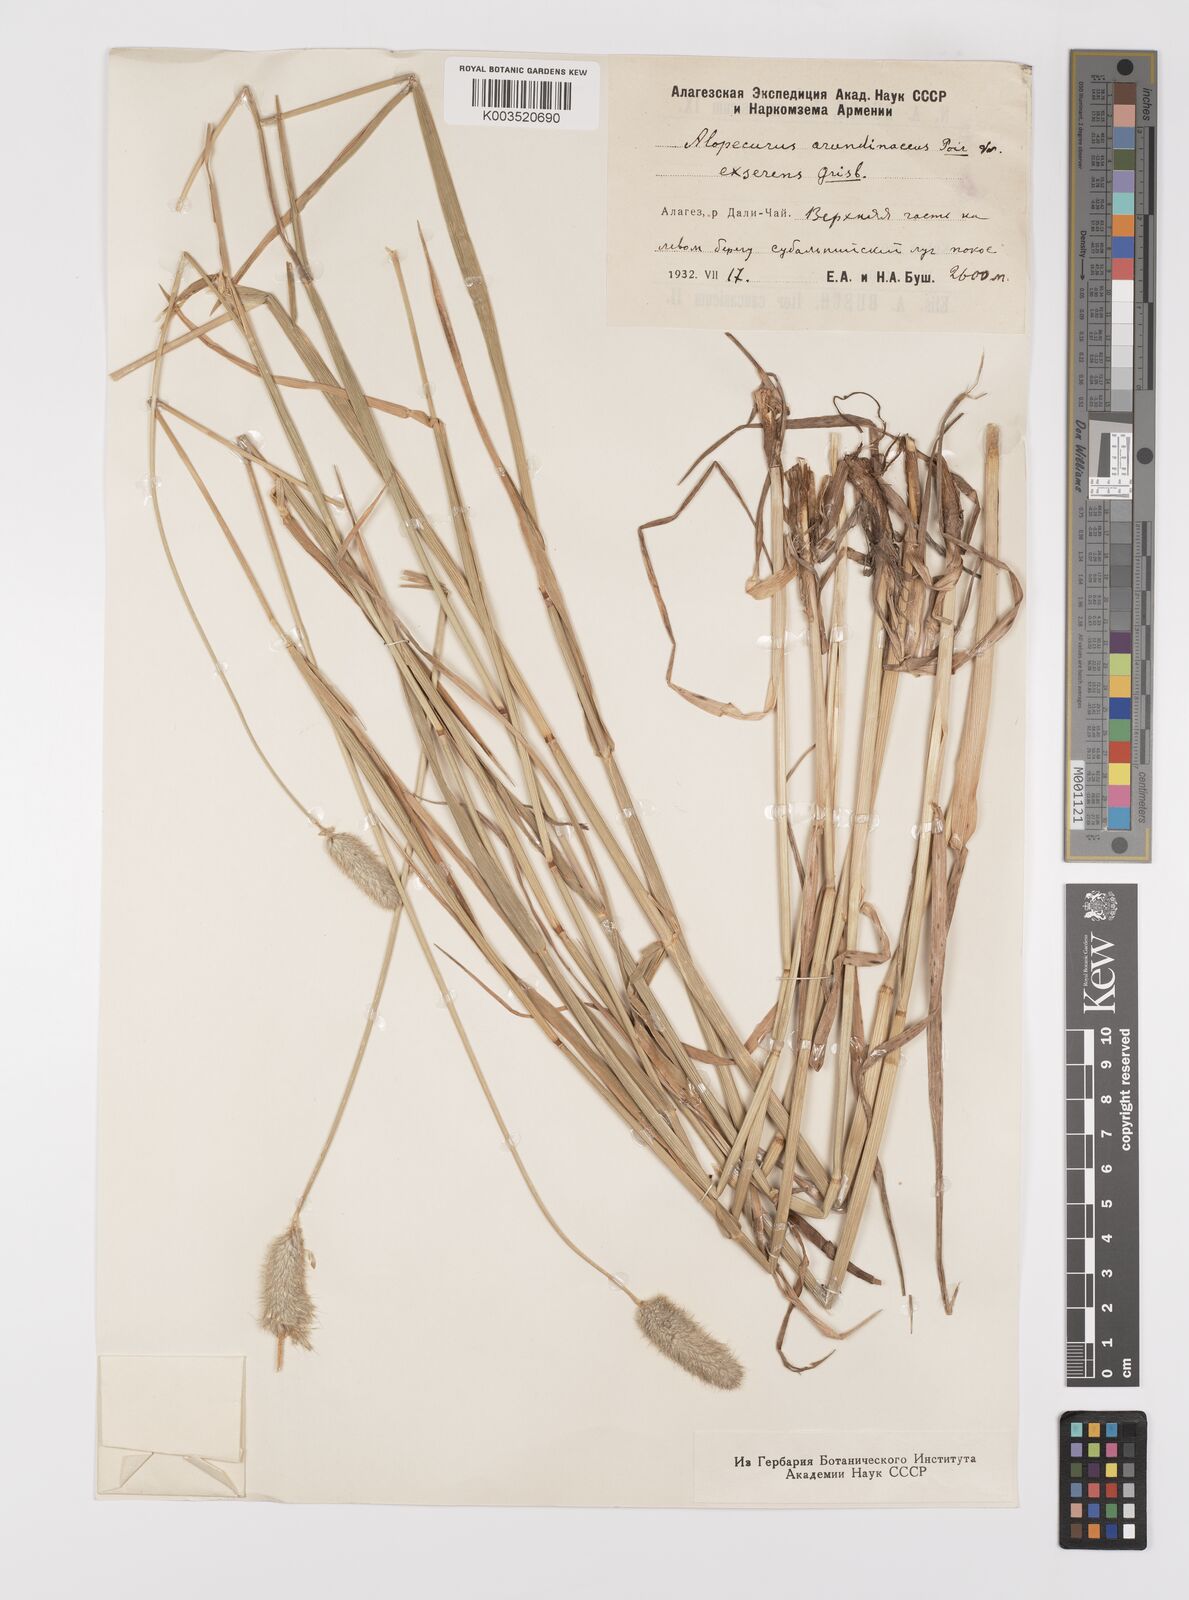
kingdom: Plantae
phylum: Tracheophyta
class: Liliopsida
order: Poales
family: Poaceae
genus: Alopecurus
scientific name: Alopecurus arundinaceus
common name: Creeping meadow foxtail
